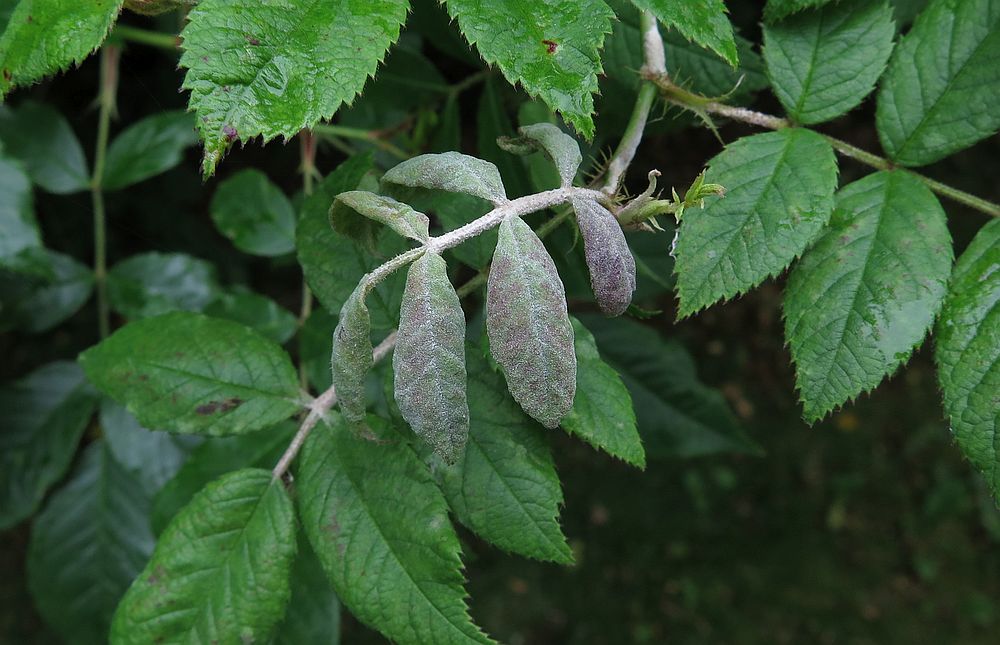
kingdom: Fungi
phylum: Ascomycota
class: Leotiomycetes
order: Helotiales
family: Erysiphaceae
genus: Podosphaera
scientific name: Podosphaera pannosa
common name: Rose mildew
